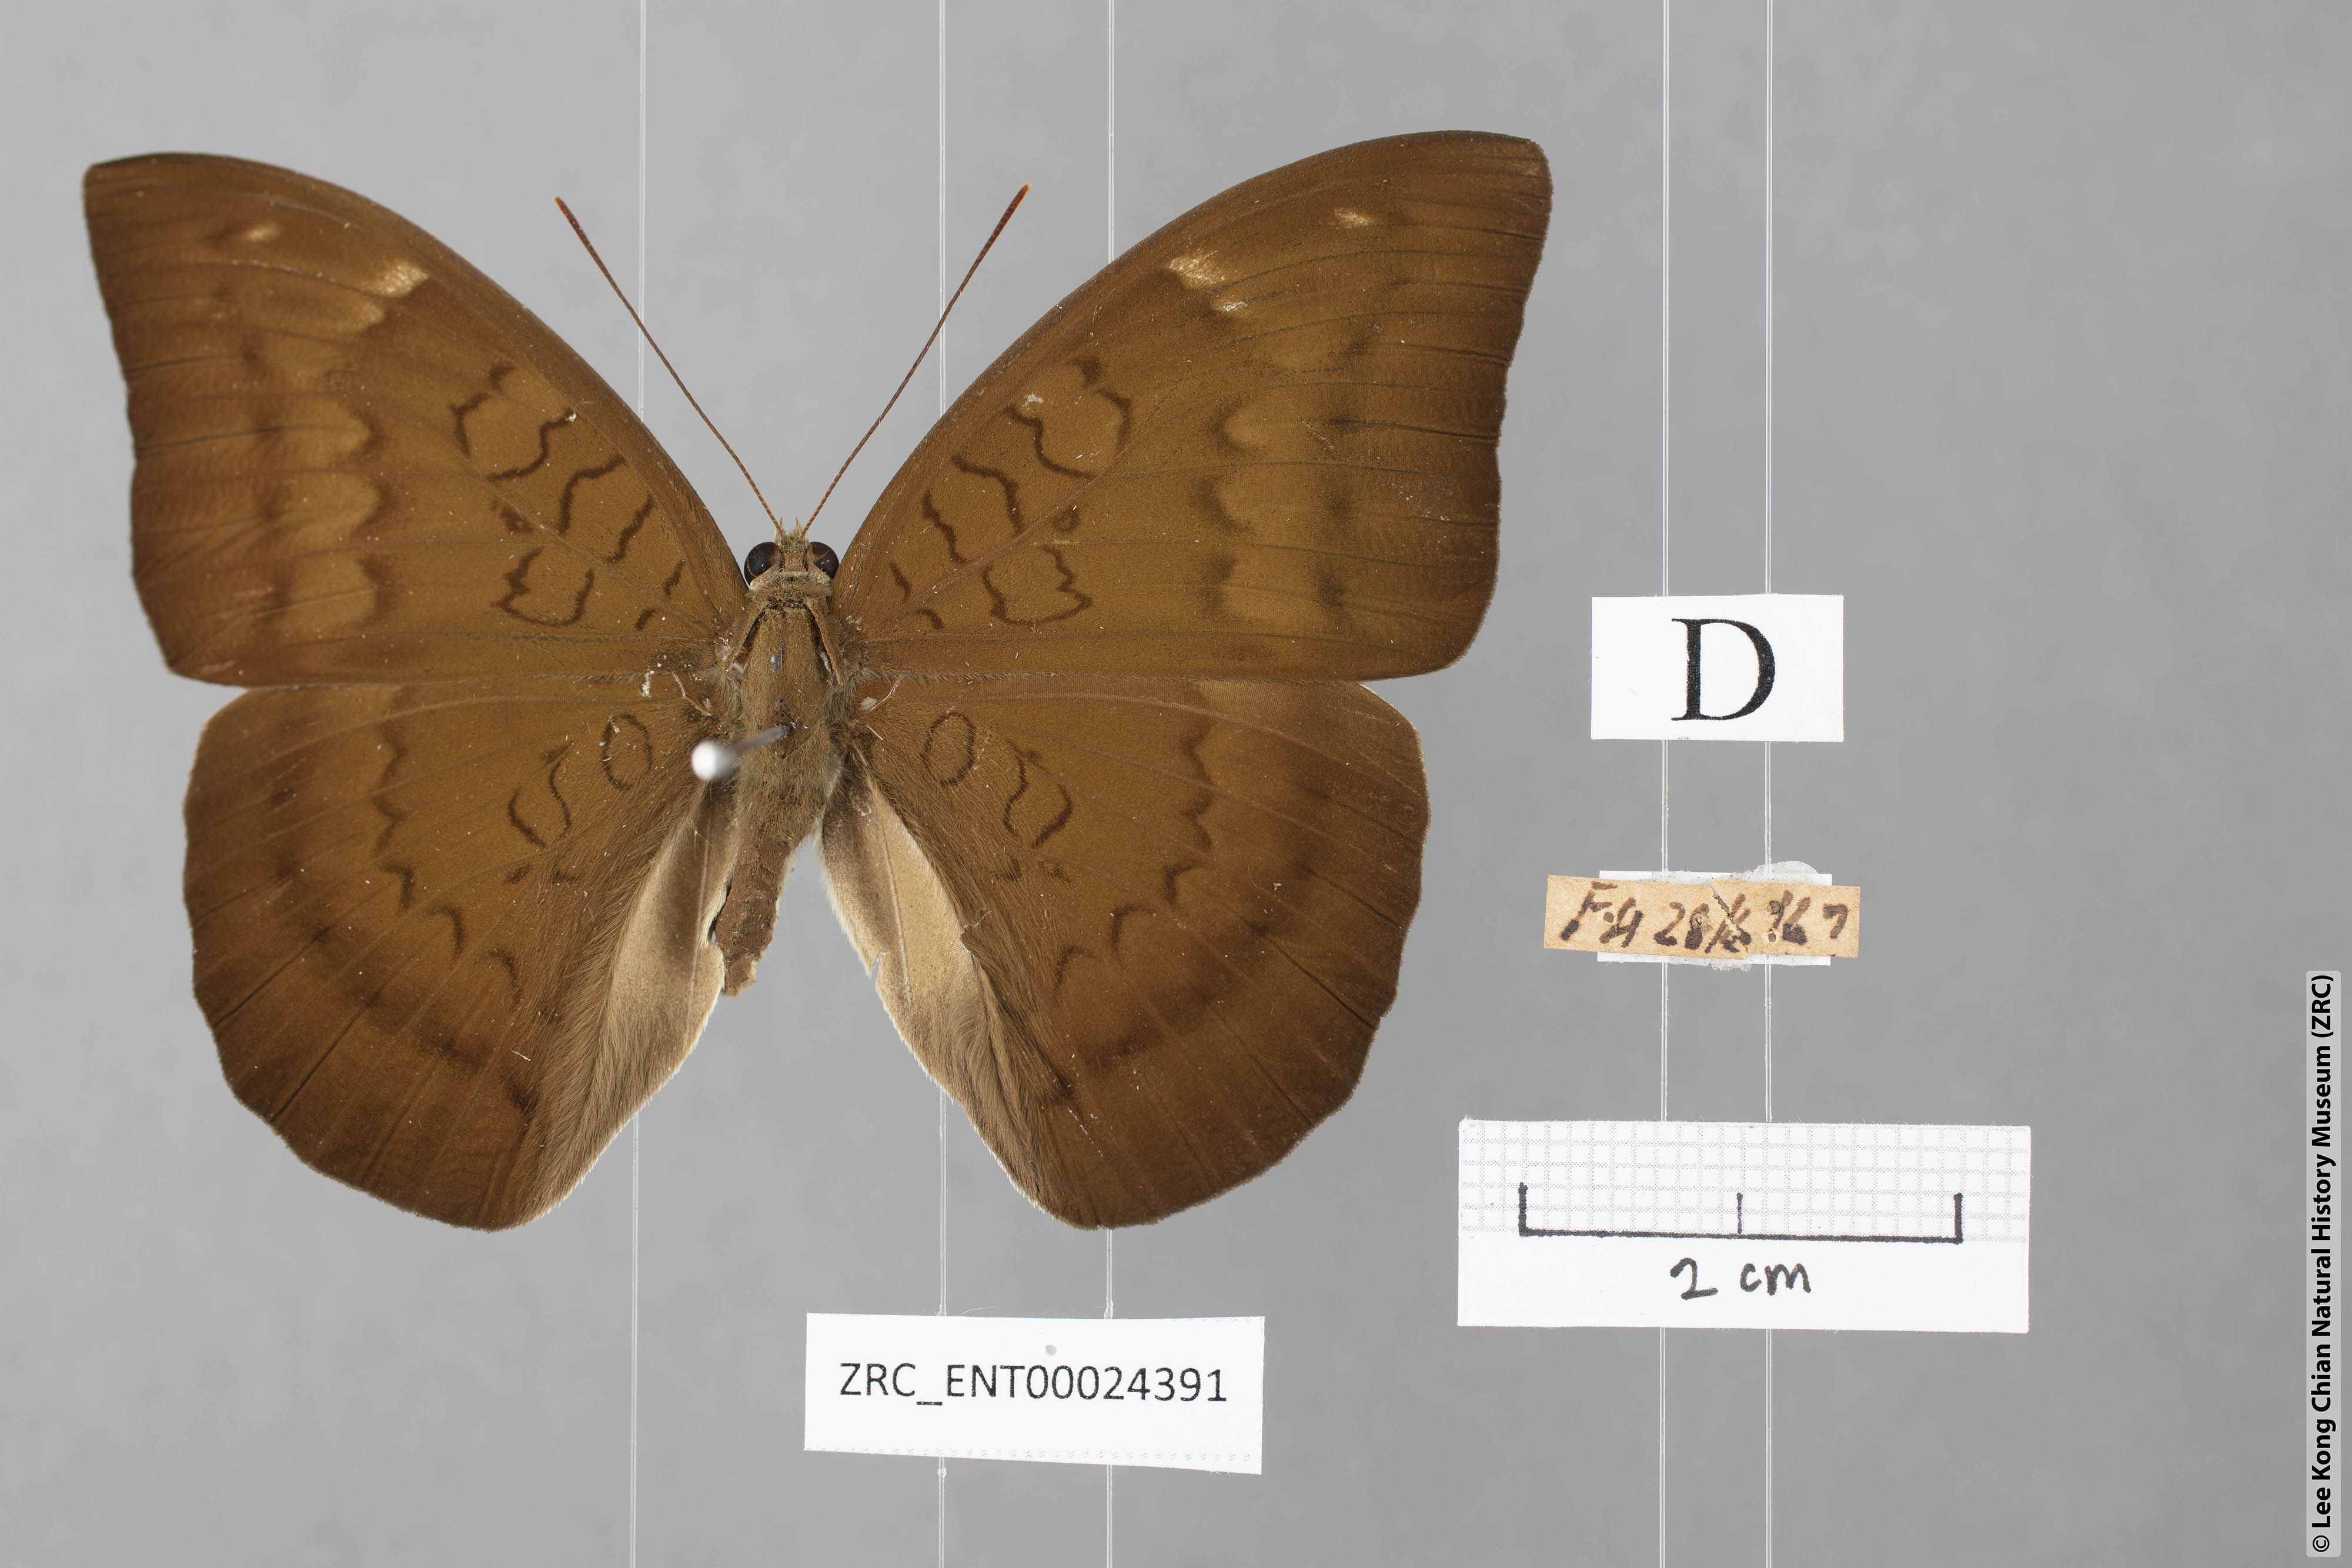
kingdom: Animalia
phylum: Arthropoda
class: Insecta
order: Lepidoptera
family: Nymphalidae
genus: Tanaecia
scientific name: Tanaecia julii
